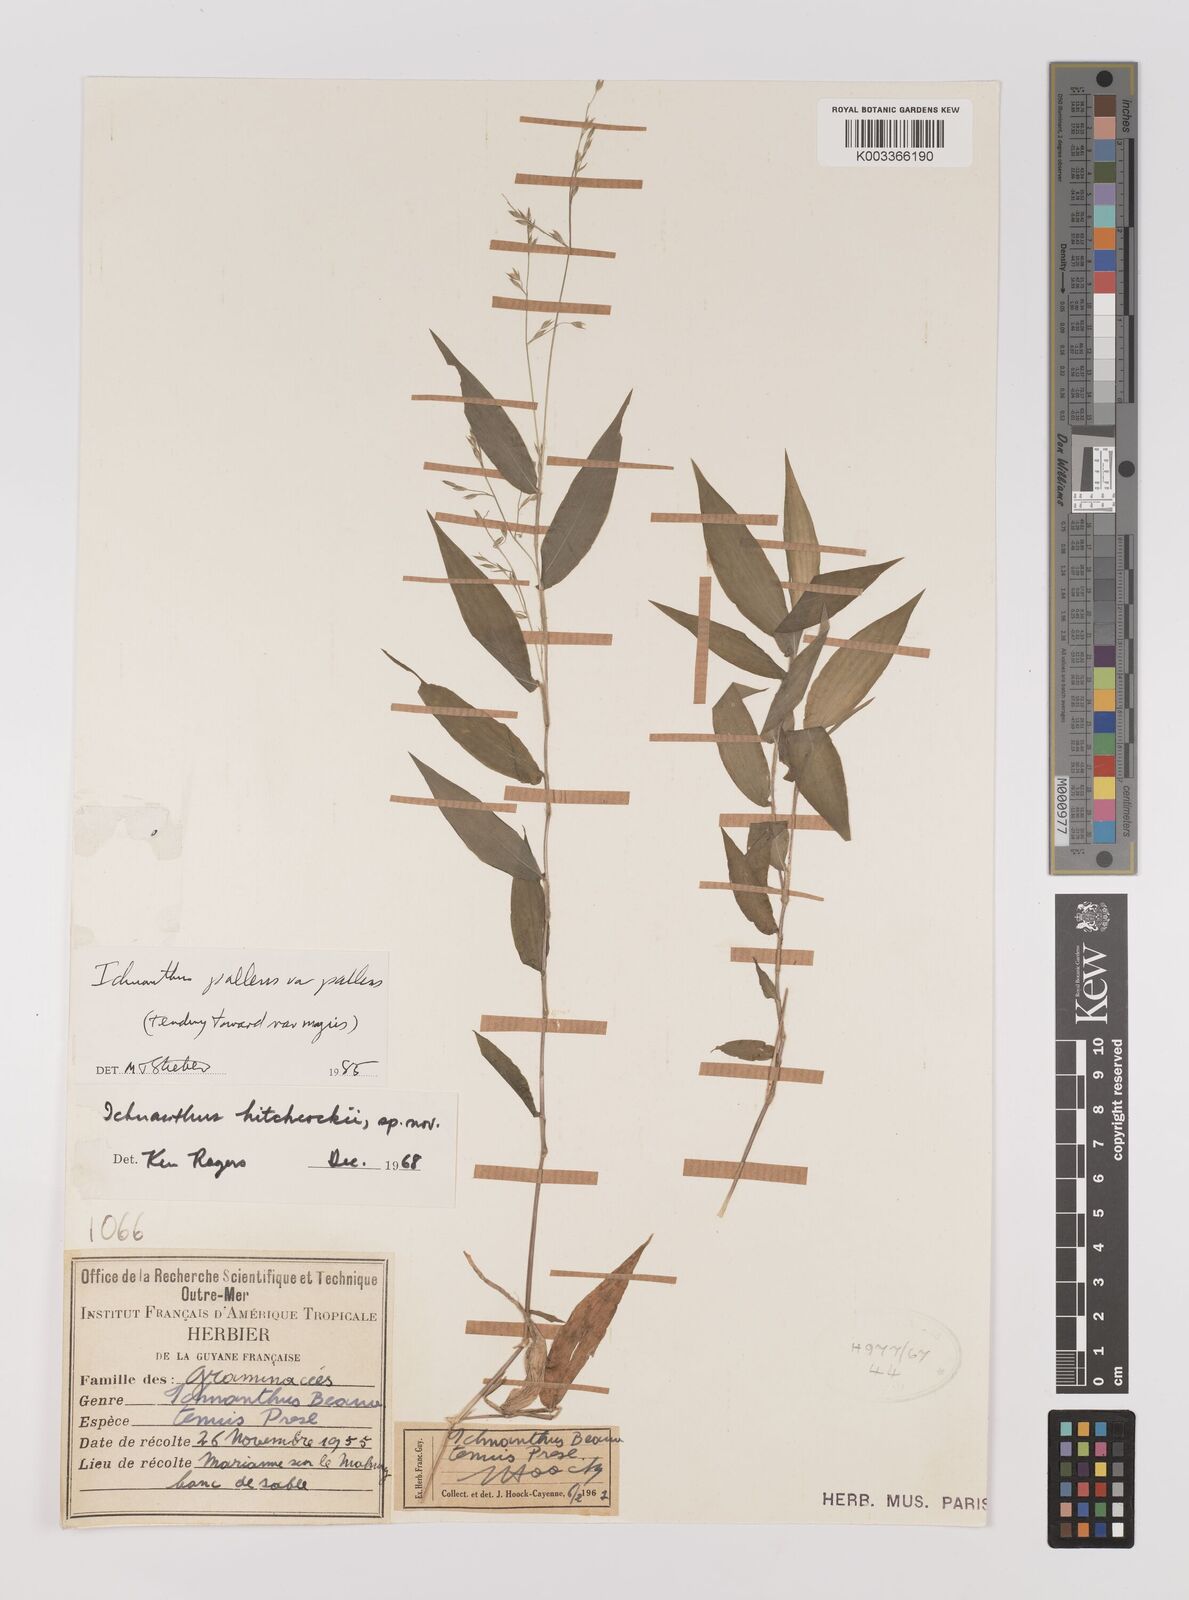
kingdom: Plantae
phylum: Tracheophyta
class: Liliopsida
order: Poales
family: Poaceae
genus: Ichnanthus
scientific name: Ichnanthus pallens
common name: Water grass
